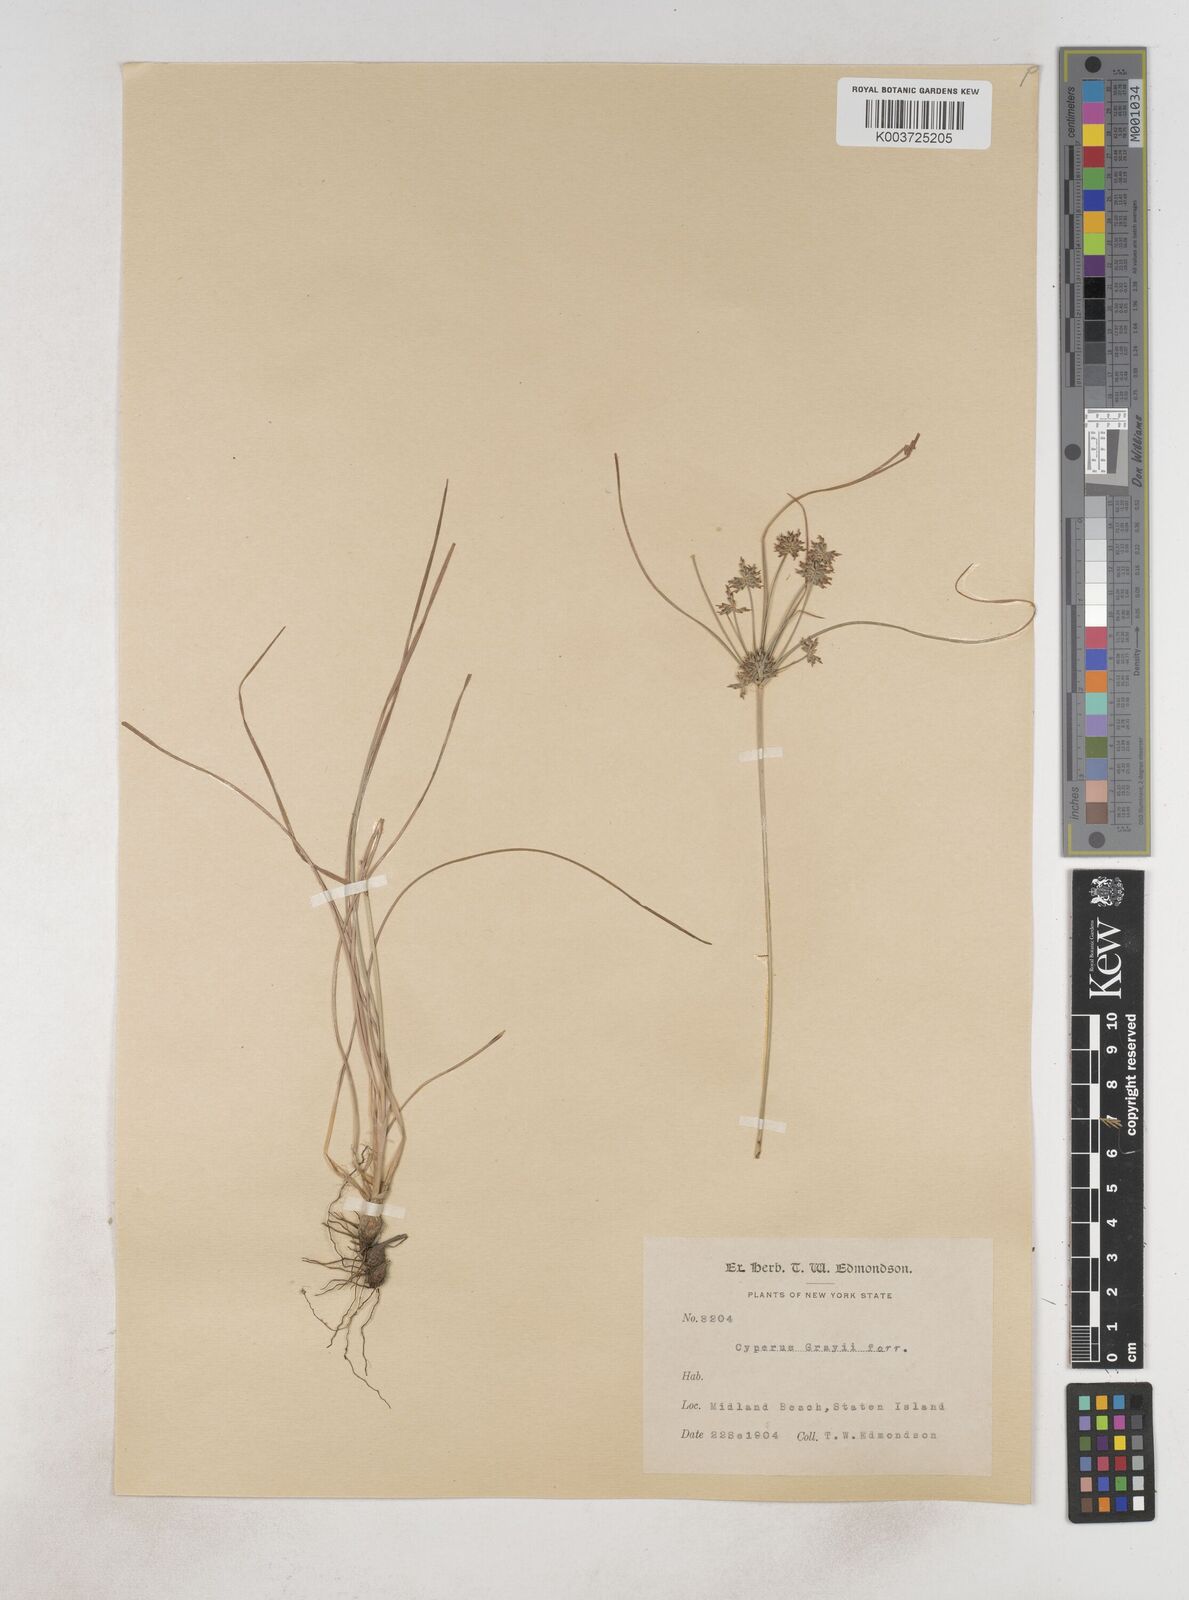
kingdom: Plantae
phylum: Tracheophyta
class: Liliopsida
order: Poales
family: Cyperaceae
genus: Cyperus
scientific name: Cyperus grayi
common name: Gray's flat sedge
